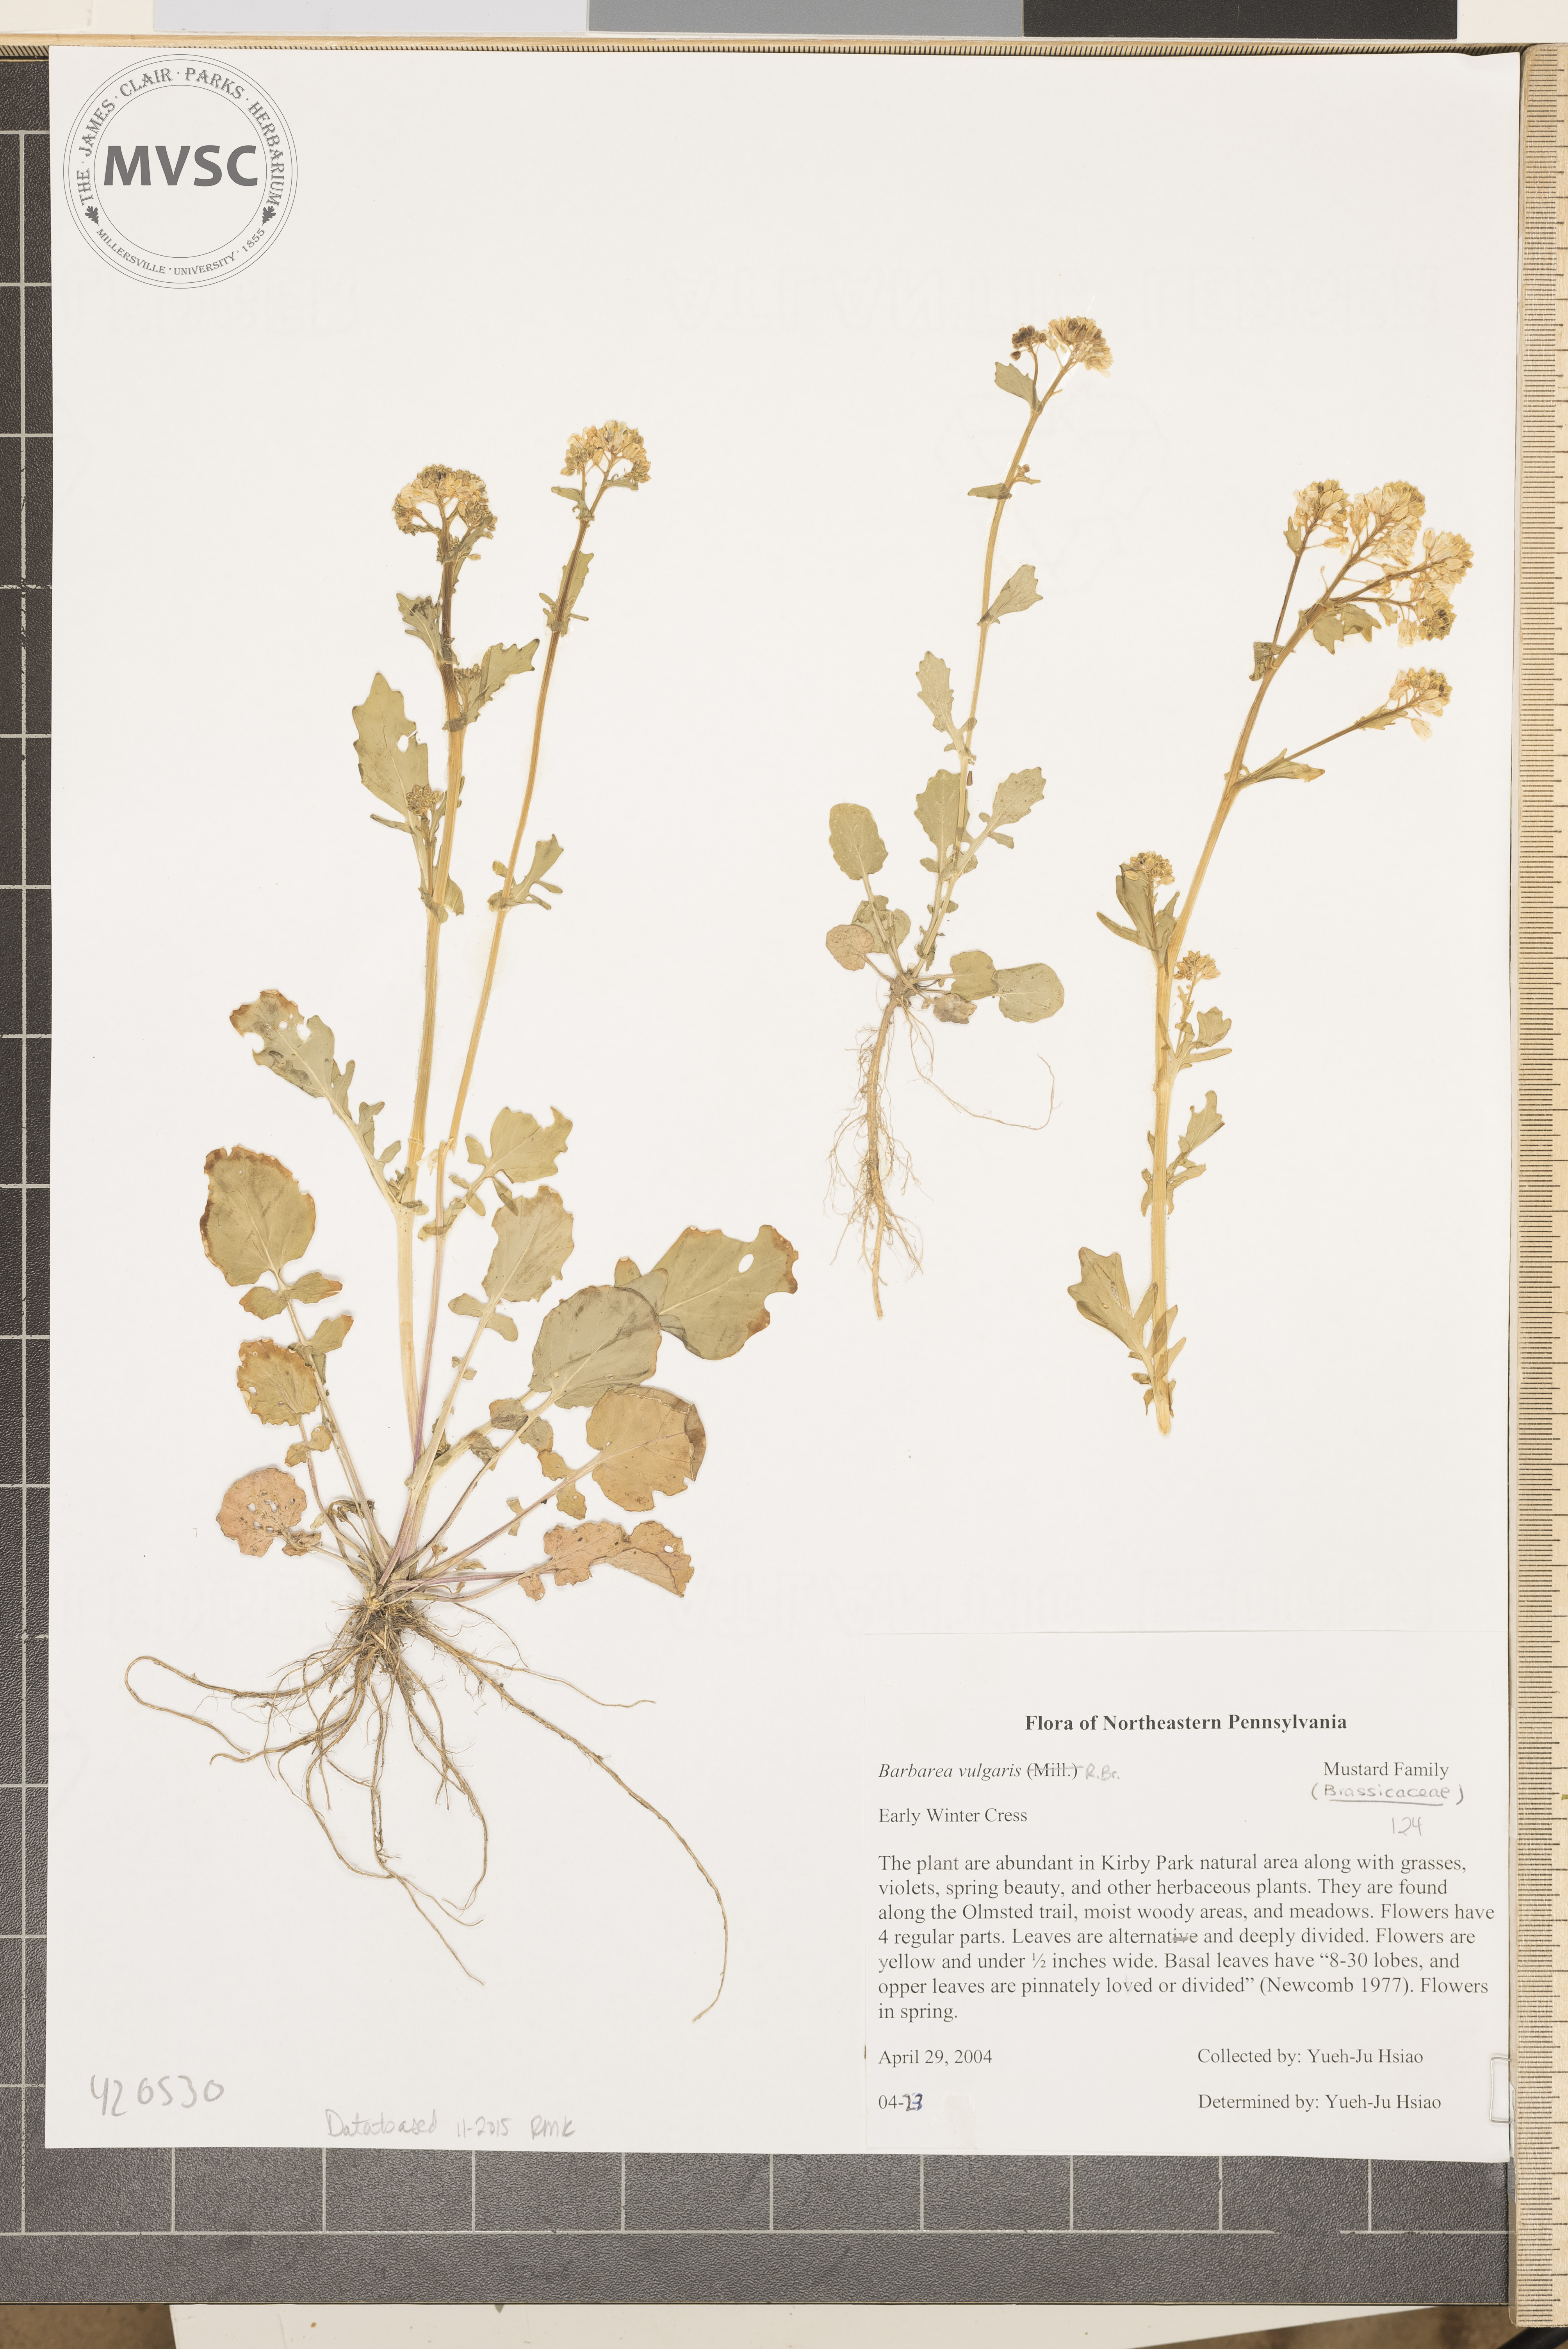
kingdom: Plantae
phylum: Tracheophyta
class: Magnoliopsida
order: Brassicales
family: Brassicaceae
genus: Barbarea
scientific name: Barbarea vulgaris
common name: Early Winter Cress
